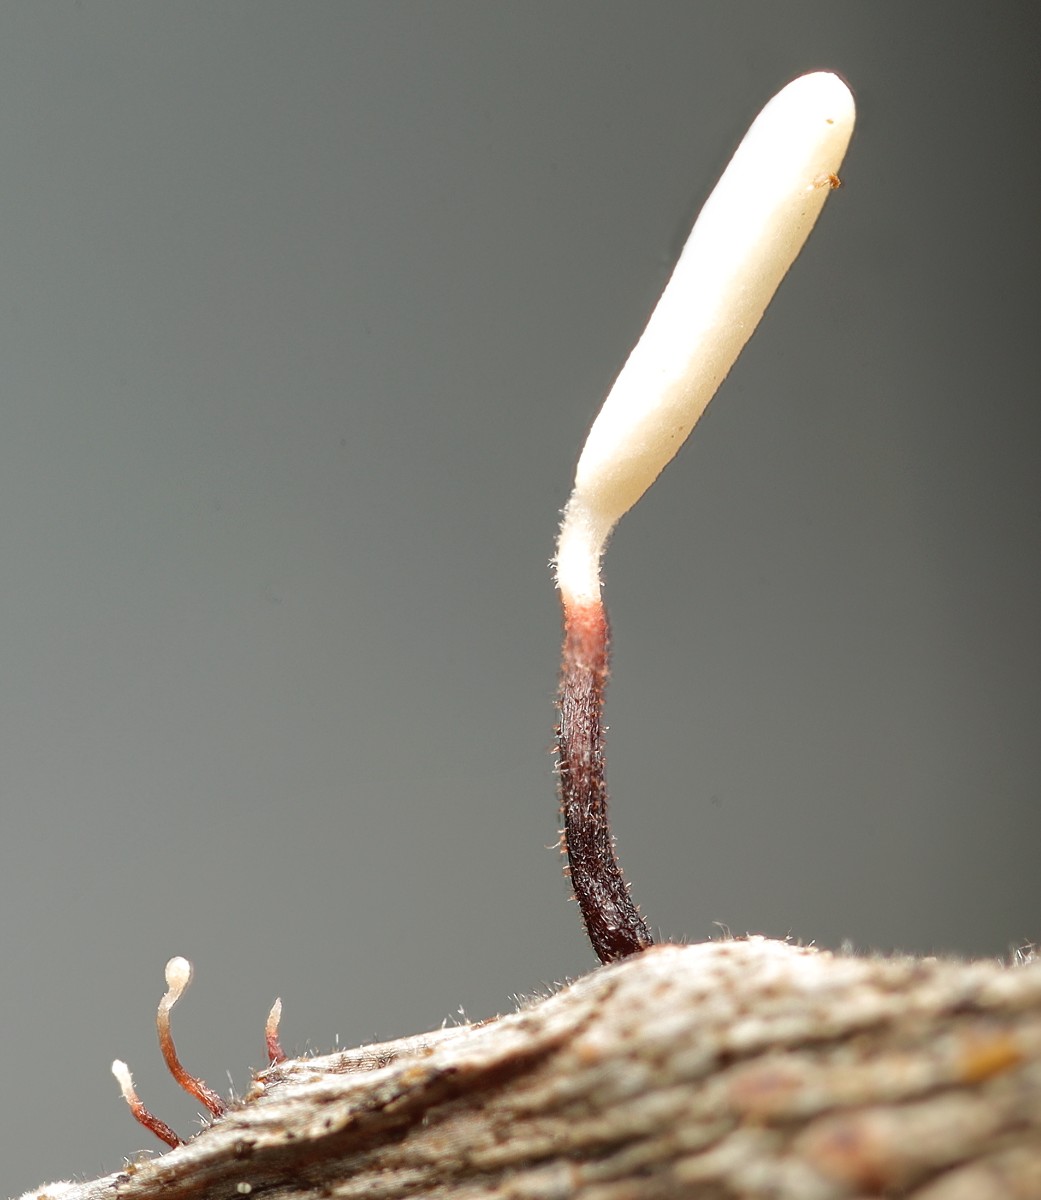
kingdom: Fungi
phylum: Basidiomycota
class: Agaricomycetes
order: Agaricales
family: Typhulaceae
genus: Typhula
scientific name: Typhula erythropus
